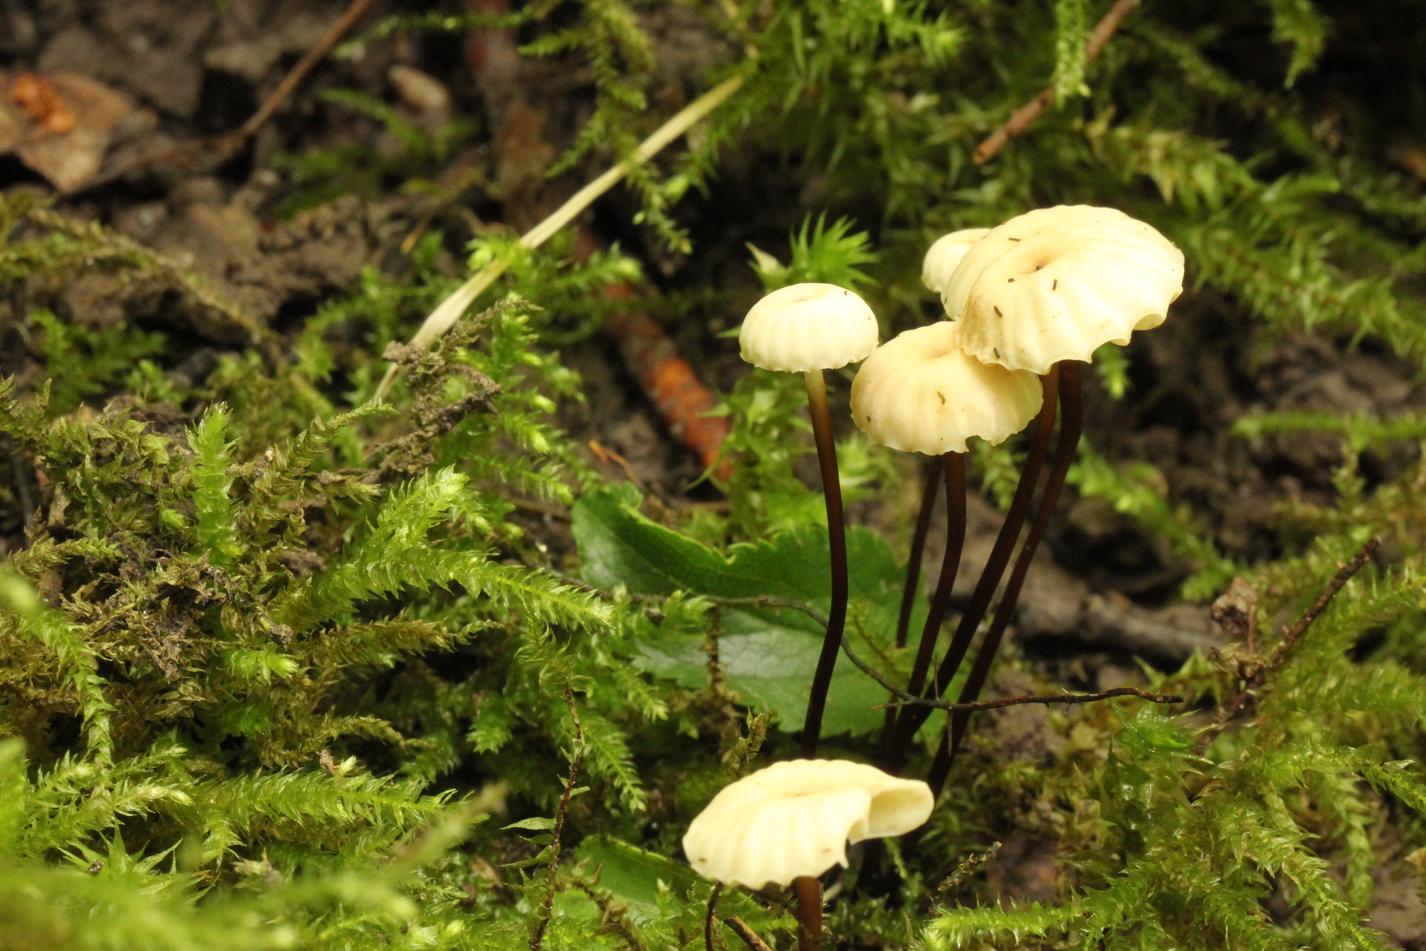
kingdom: Fungi
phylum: Basidiomycota
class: Agaricomycetes
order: Agaricales
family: Marasmiaceae
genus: Marasmius
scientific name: Marasmius rotula
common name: hjul-bruskhat
